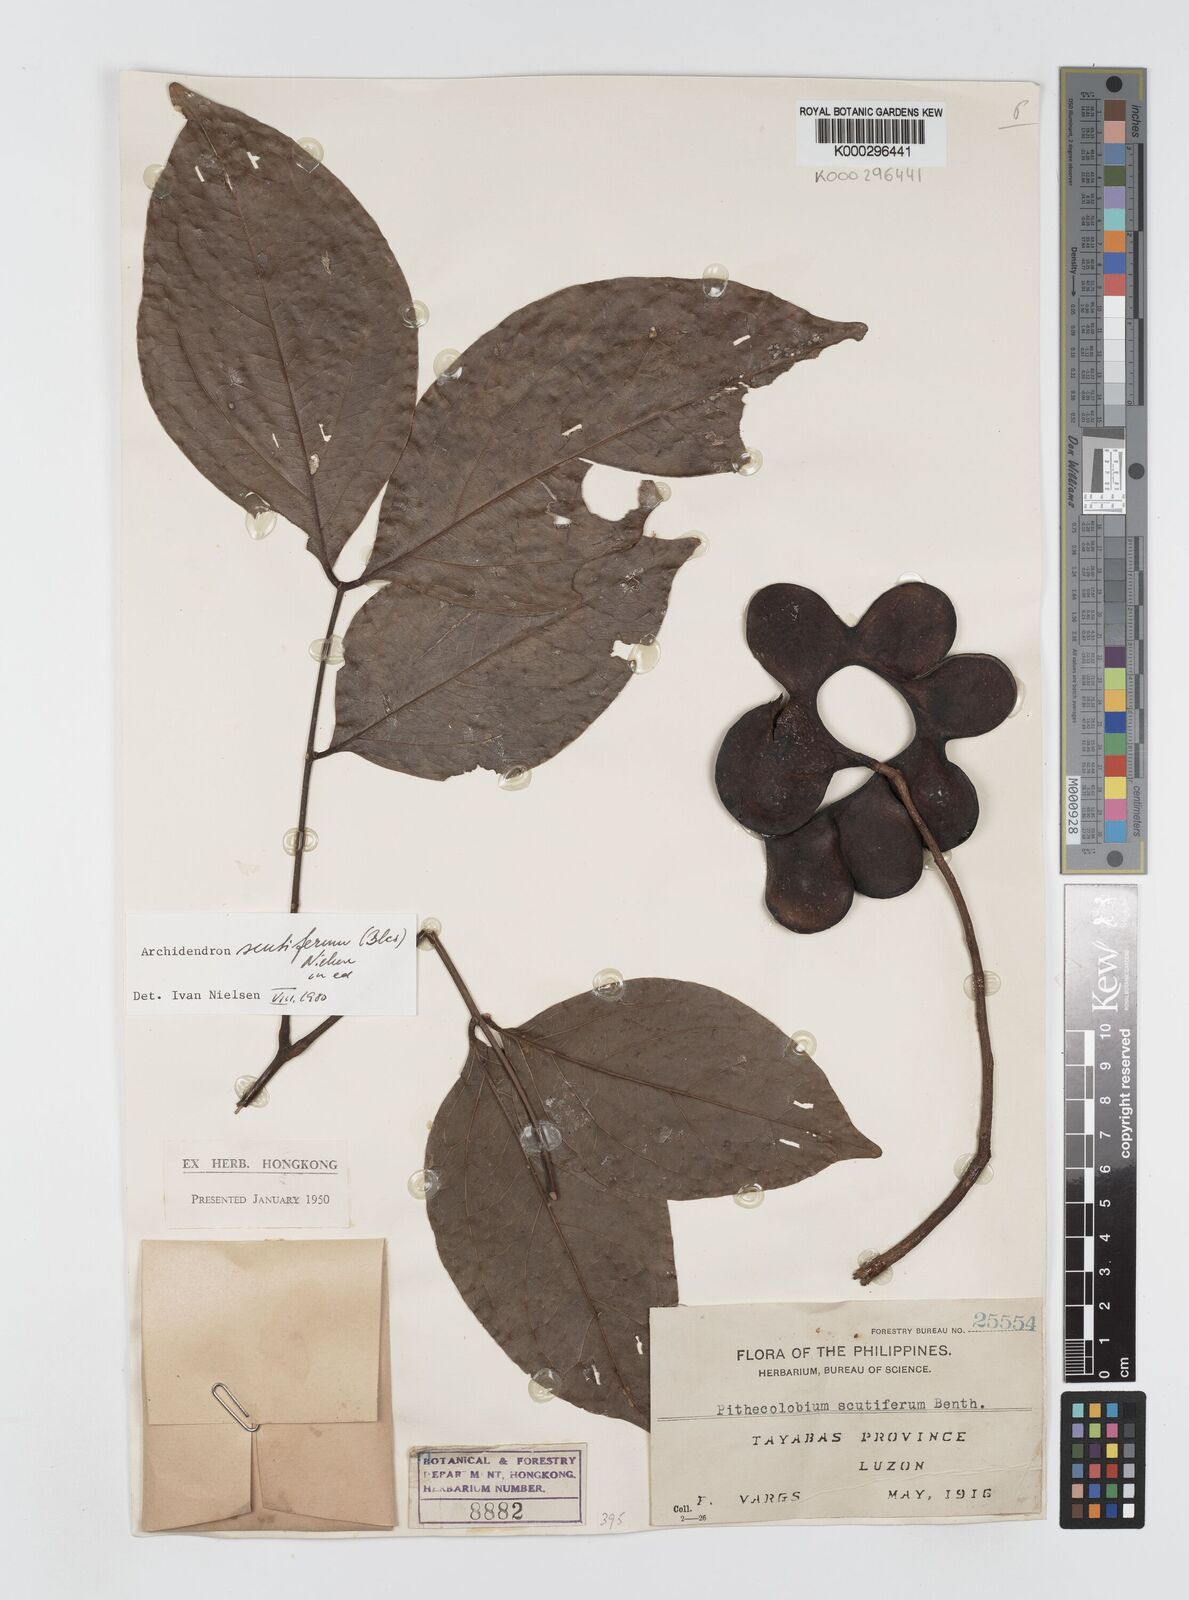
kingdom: Plantae
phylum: Tracheophyta
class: Magnoliopsida
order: Fabales
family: Fabaceae
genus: Archidendron
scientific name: Archidendron scutiferum
